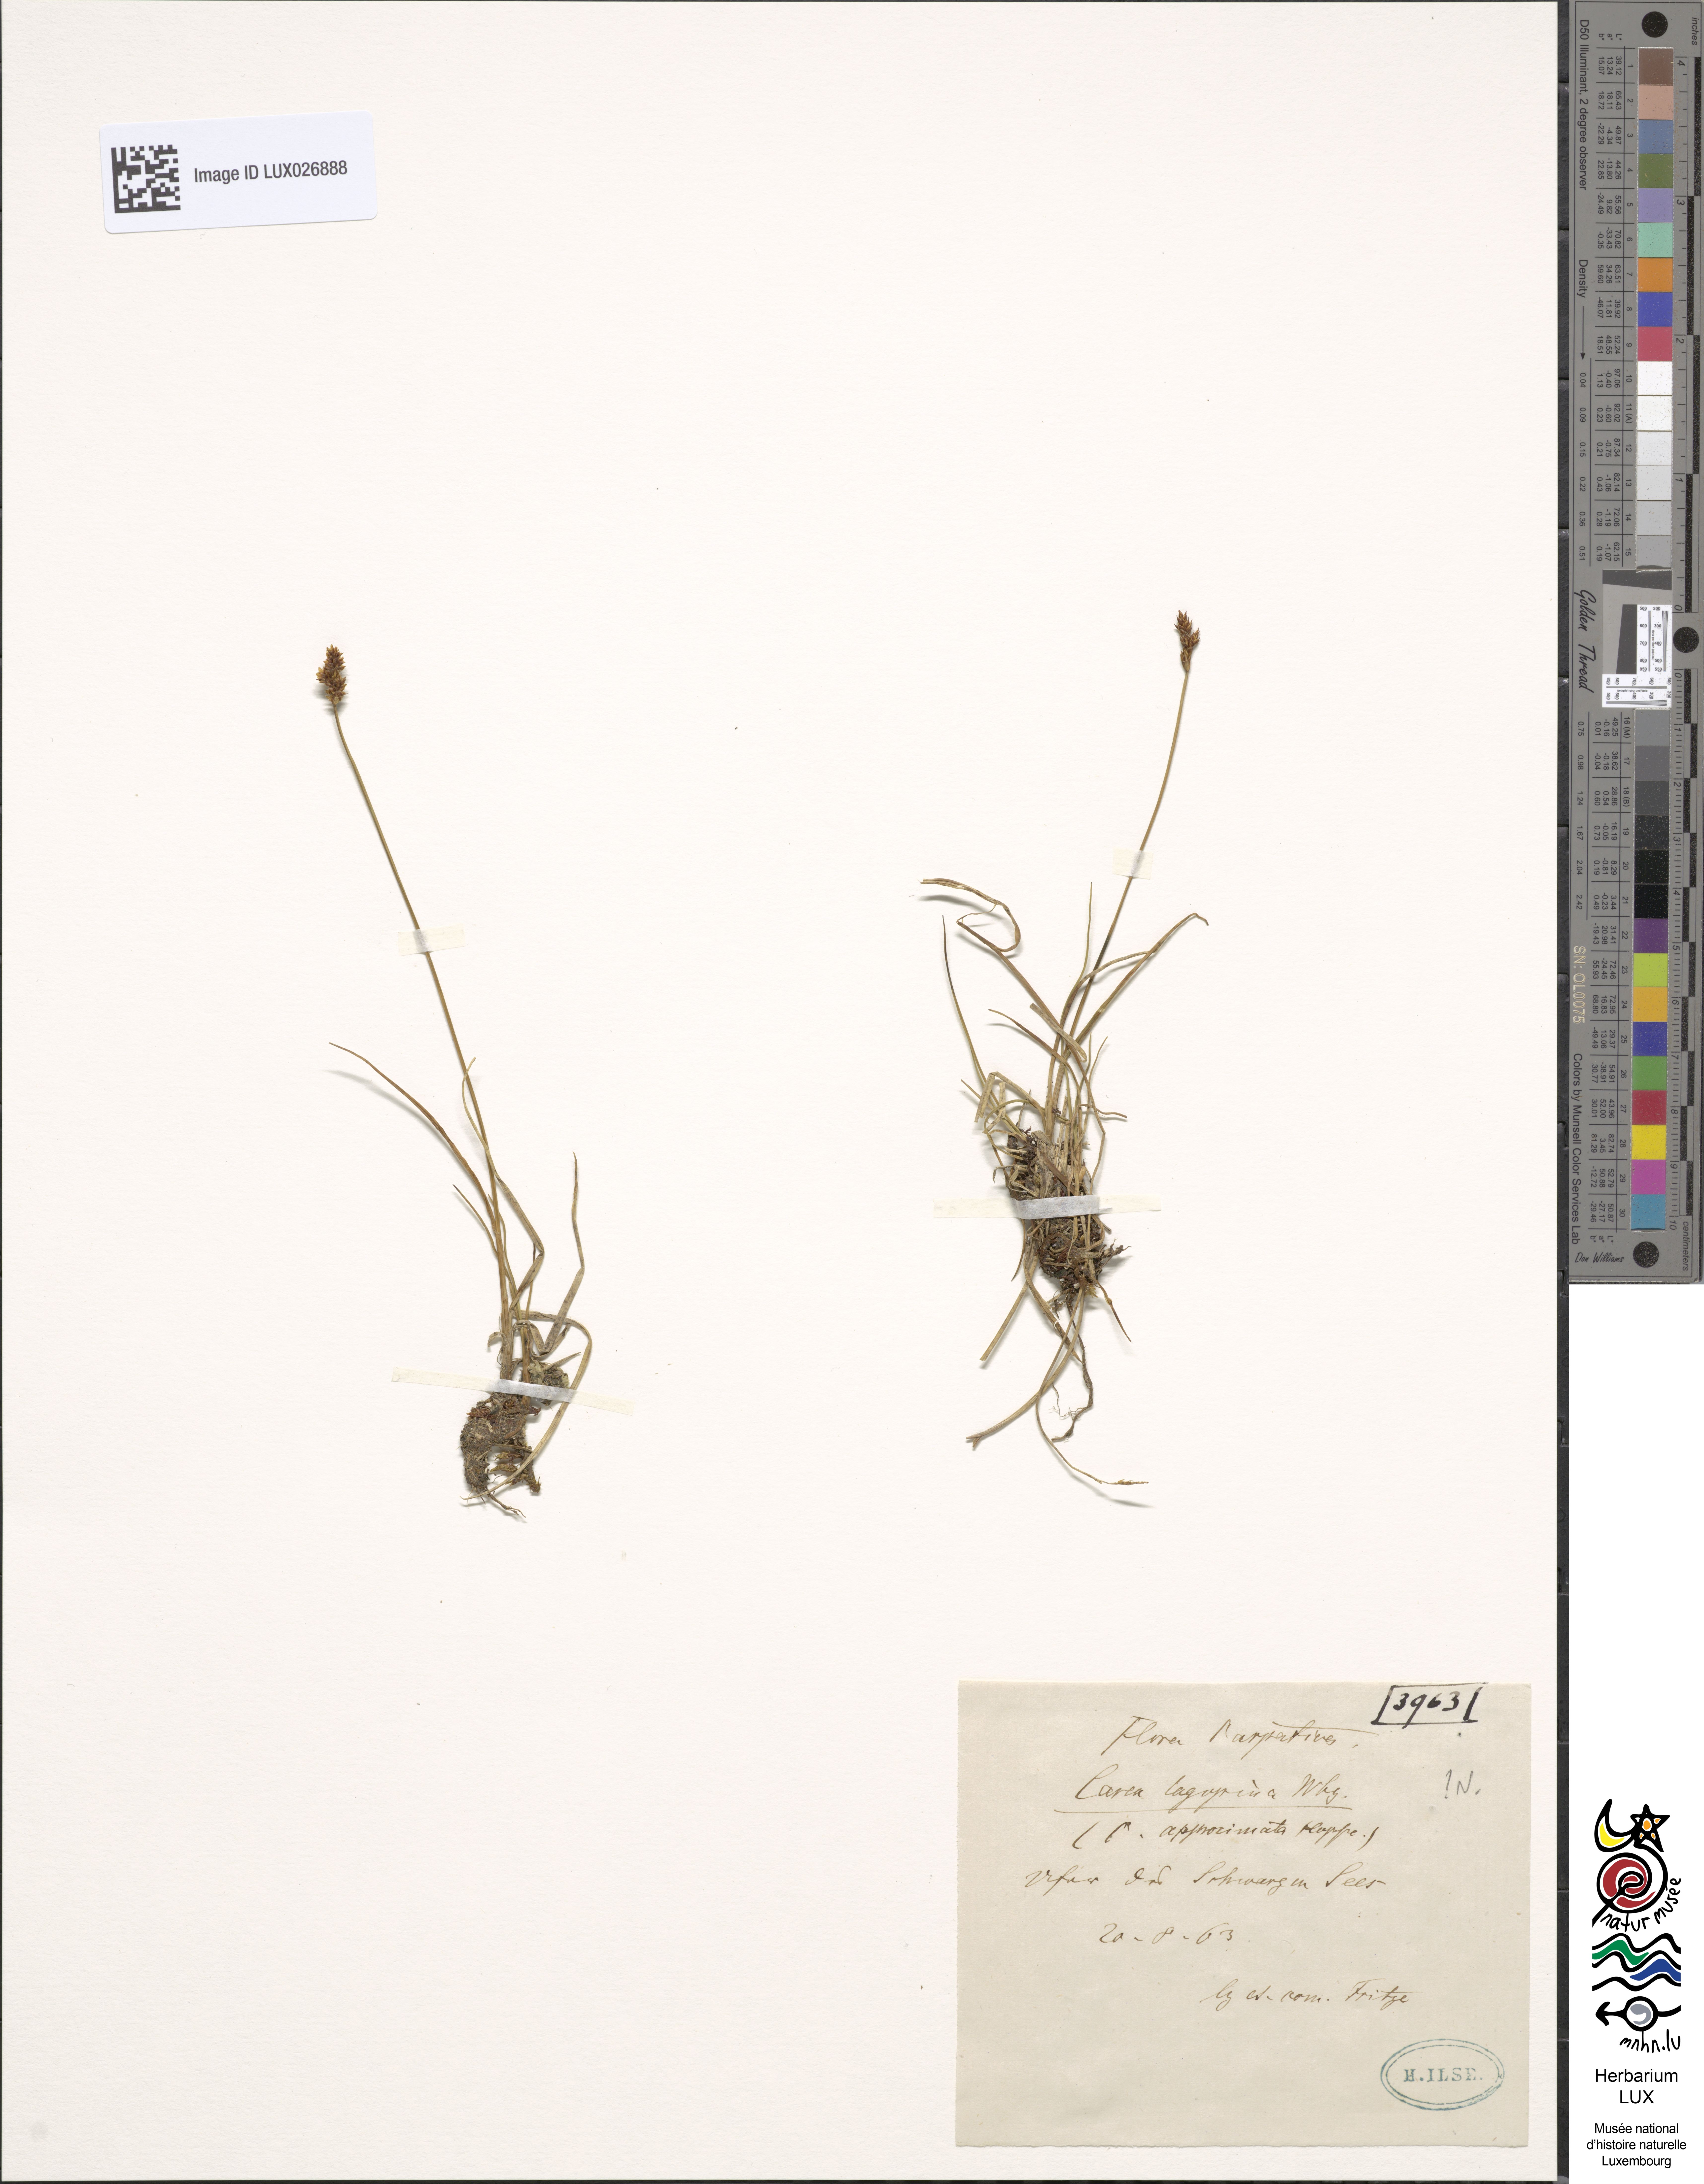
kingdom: Plantae
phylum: Tracheophyta
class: Liliopsida
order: Poales
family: Cyperaceae
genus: Carex
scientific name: Carex lachenalii
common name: Hare's-foot sedge
